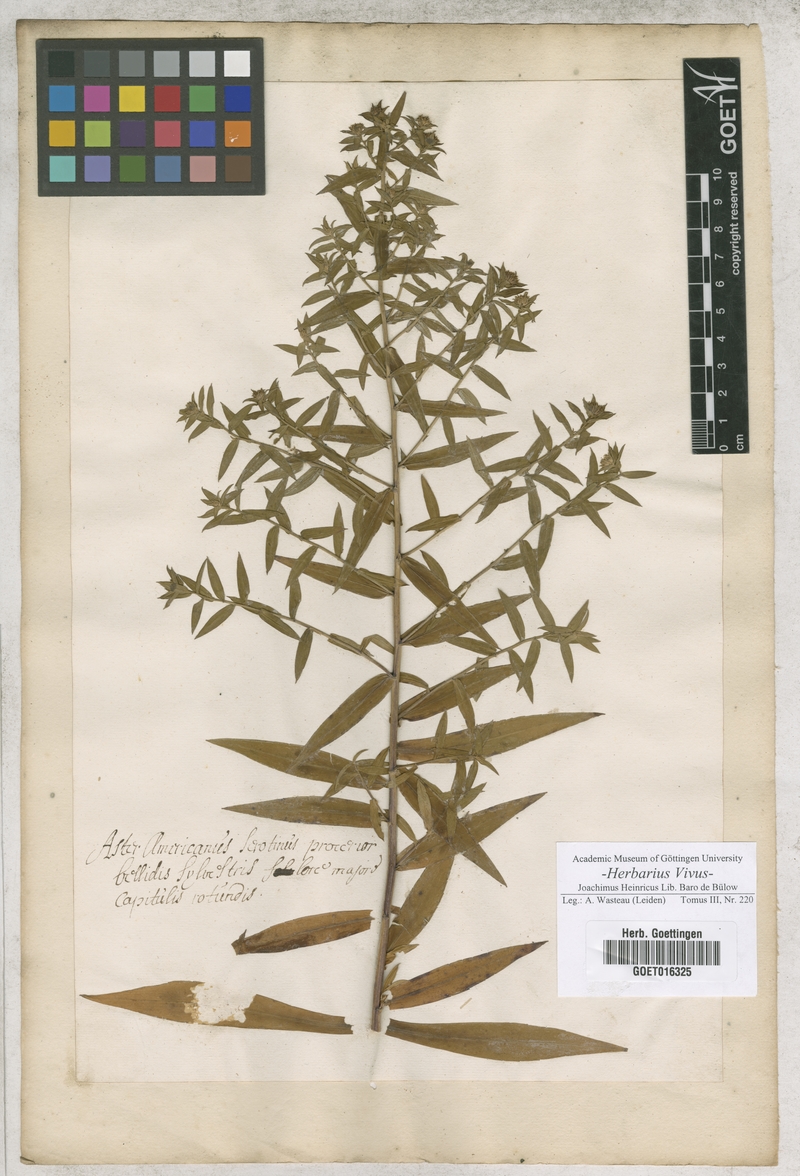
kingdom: Plantae
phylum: Tracheophyta
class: Magnoliopsida
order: Asterales
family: Asteraceae
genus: Aster
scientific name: Aster
